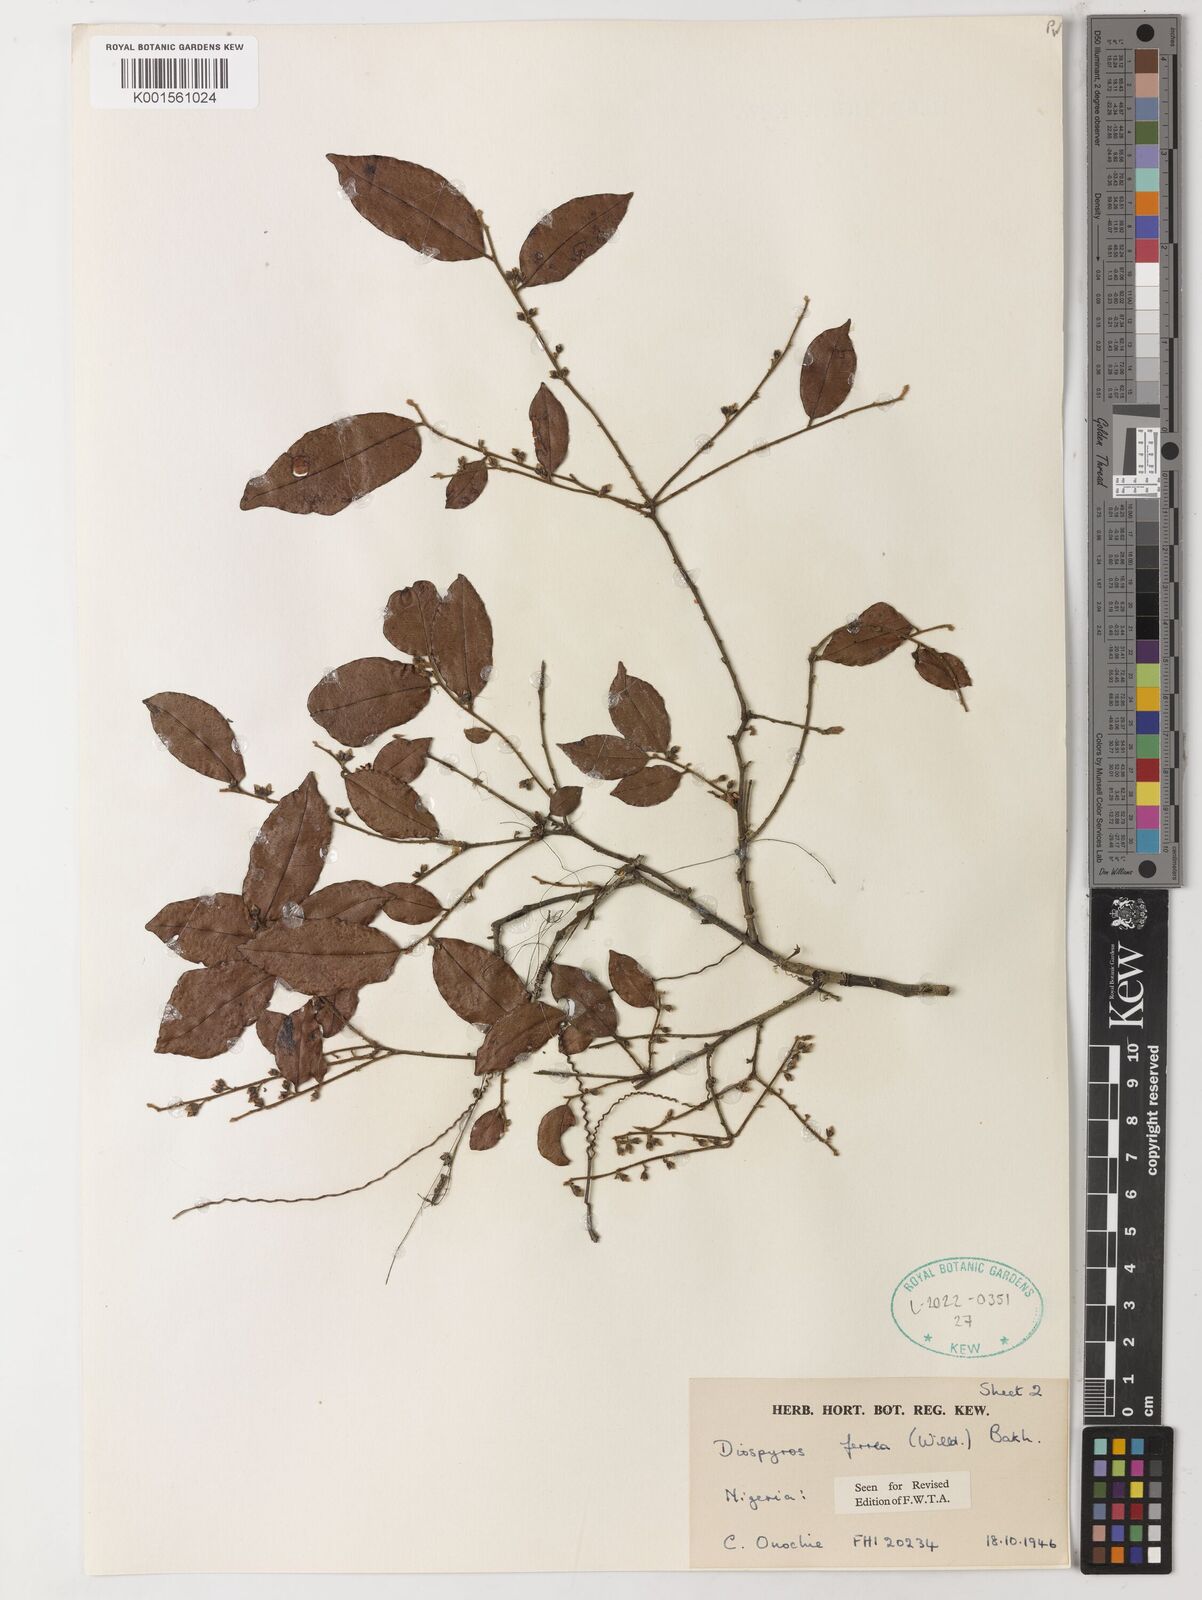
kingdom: Plantae
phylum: Tracheophyta
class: Magnoliopsida
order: Ericales
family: Ebenaceae
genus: Diospyros
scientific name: Diospyros ferrea
